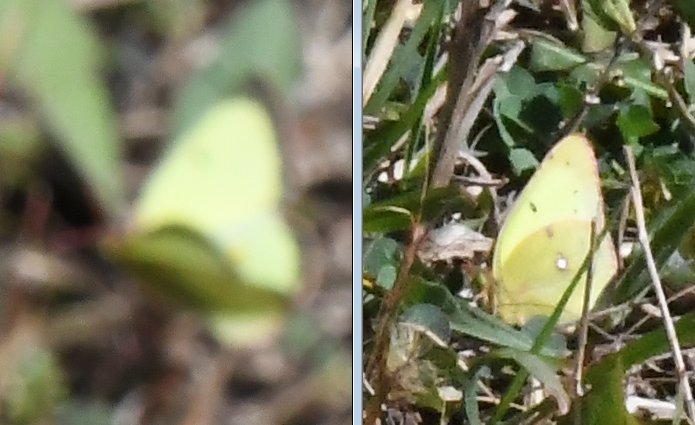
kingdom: Animalia
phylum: Arthropoda
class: Insecta
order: Lepidoptera
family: Pieridae
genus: Colias
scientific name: Colias philodice
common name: Clouded Sulphur
